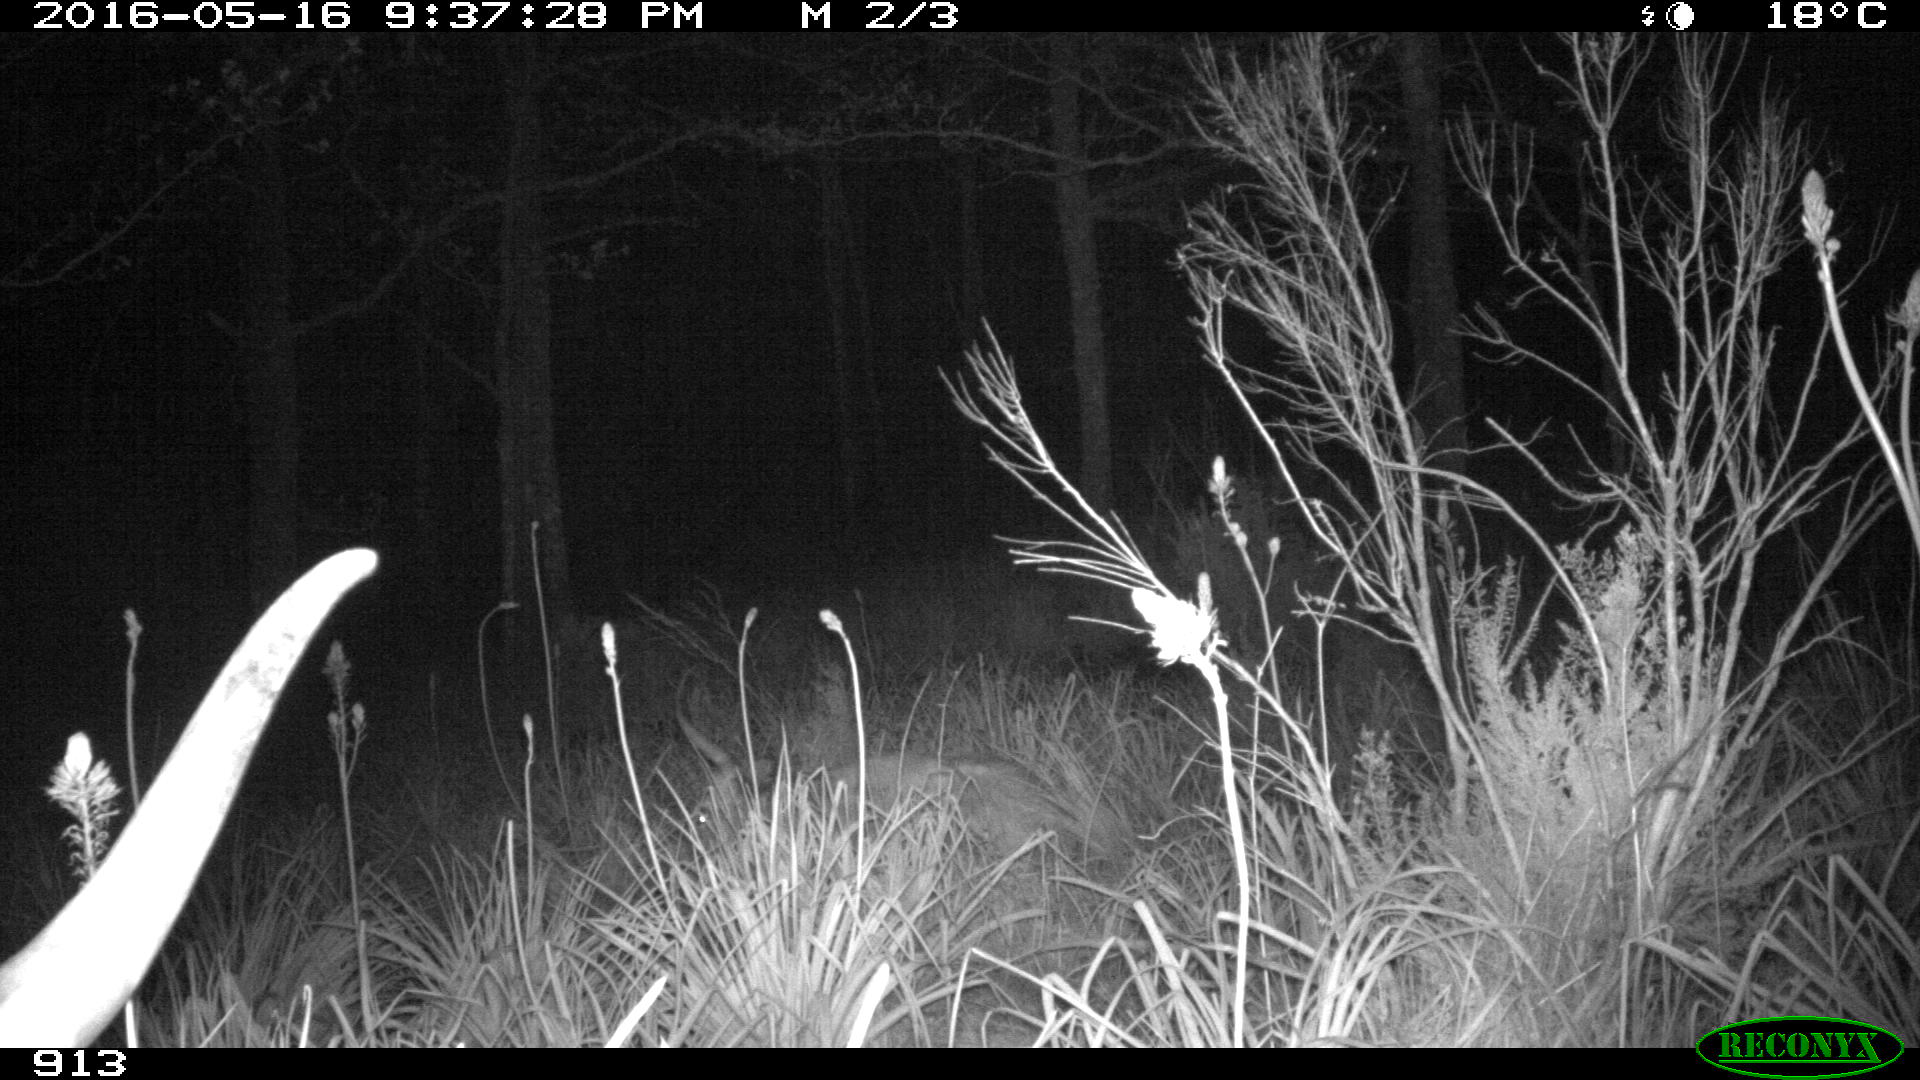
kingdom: Animalia
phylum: Chordata
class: Mammalia
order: Artiodactyla
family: Bovidae
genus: Bos
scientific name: Bos taurus
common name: Domesticated cattle
